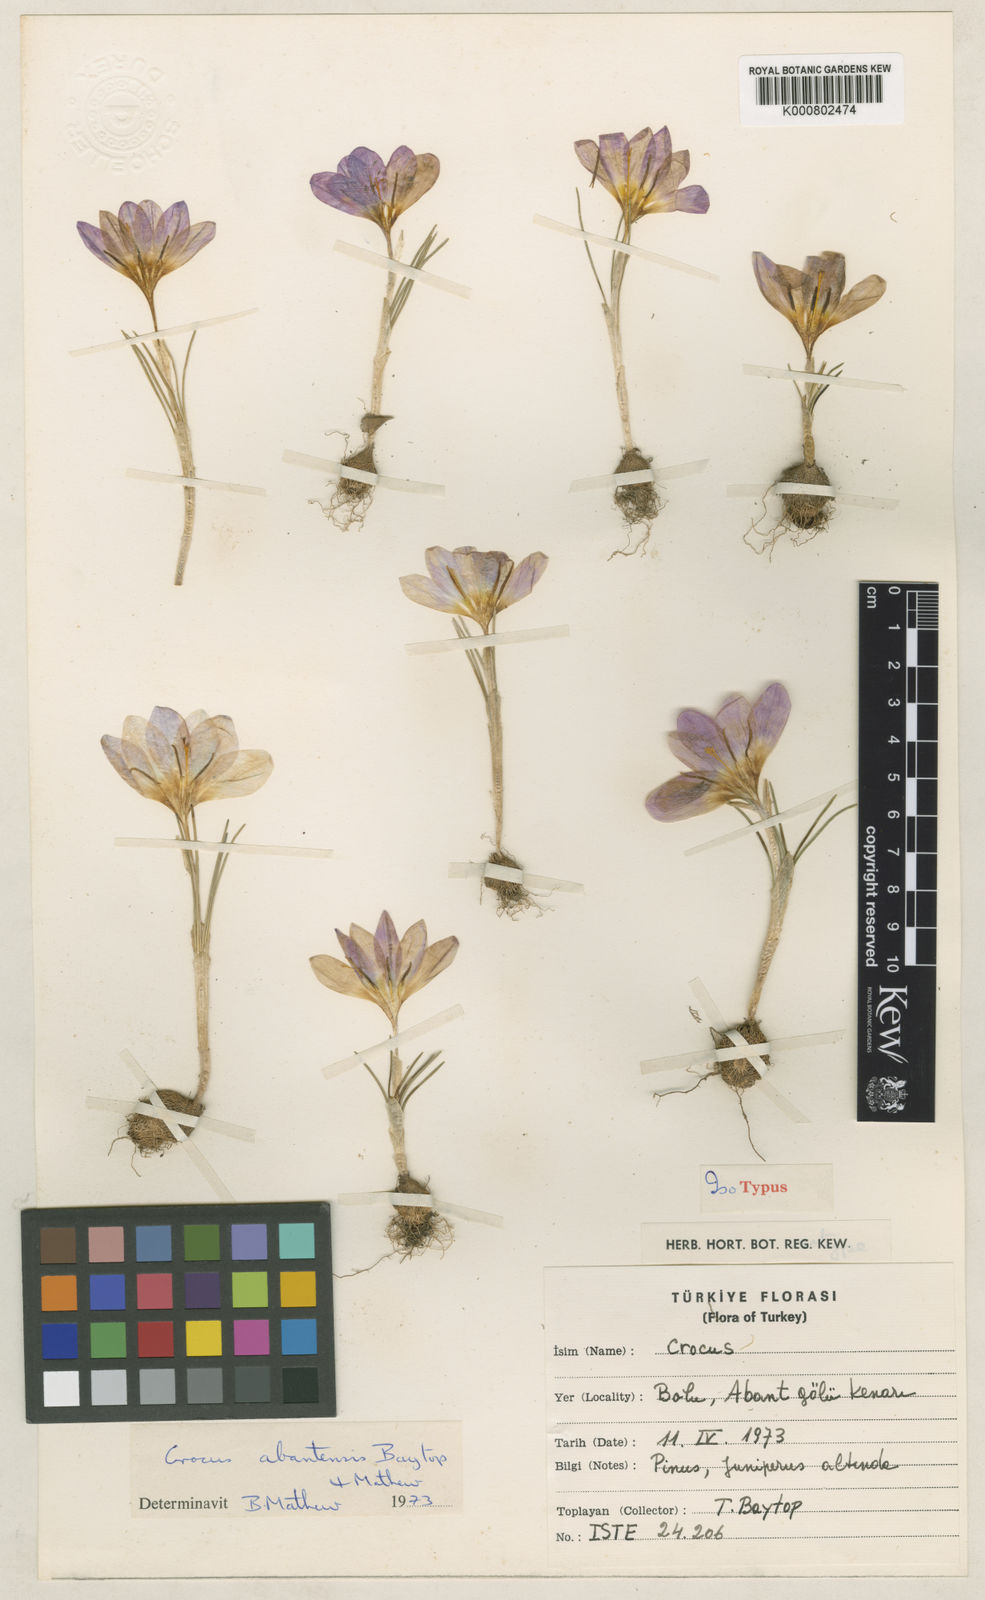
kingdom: Plantae
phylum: Tracheophyta
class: Liliopsida
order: Asparagales
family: Iridaceae
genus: Crocus
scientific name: Crocus abantensis
